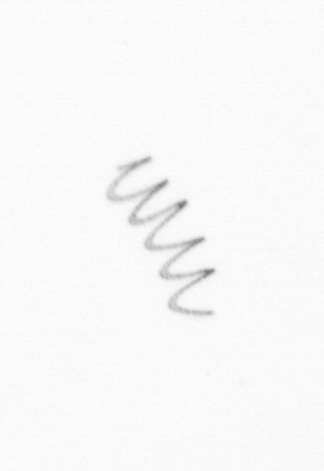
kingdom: Chromista
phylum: Ochrophyta
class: Bacillariophyceae
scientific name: Bacillariophyceae
